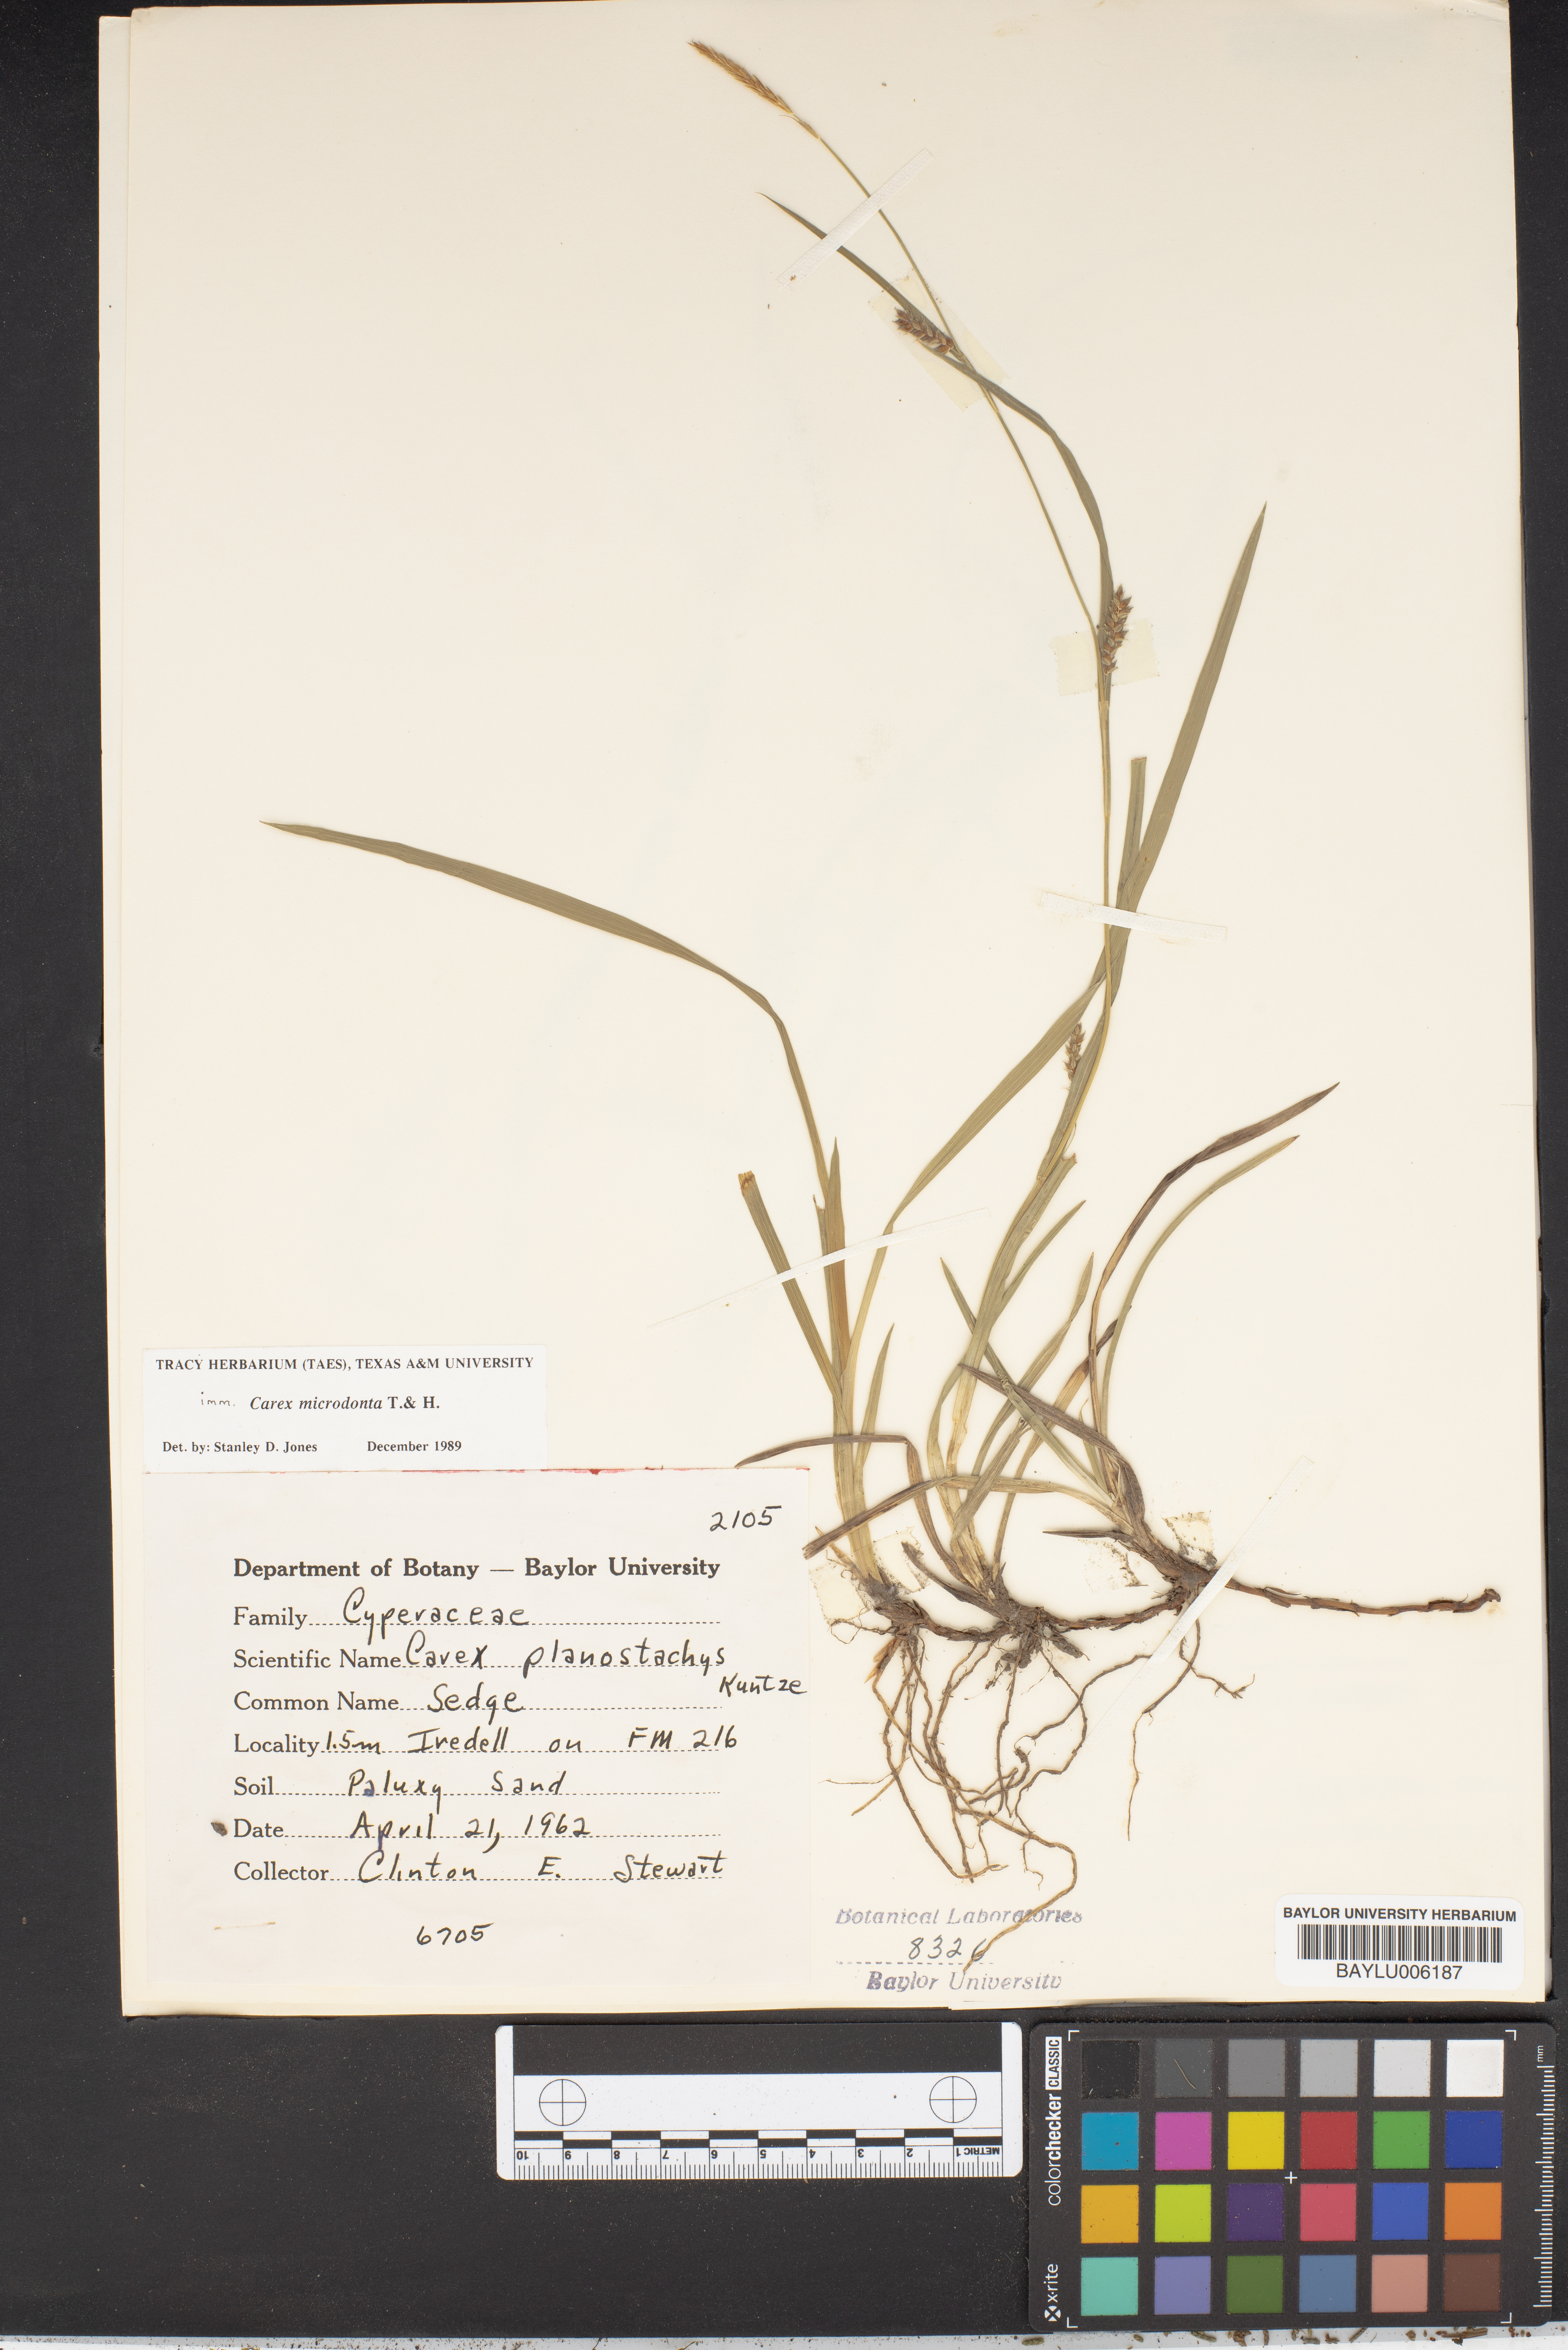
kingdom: Plantae
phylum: Tracheophyta
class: Liliopsida
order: Poales
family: Cyperaceae
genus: Carex
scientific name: Carex microdonta
